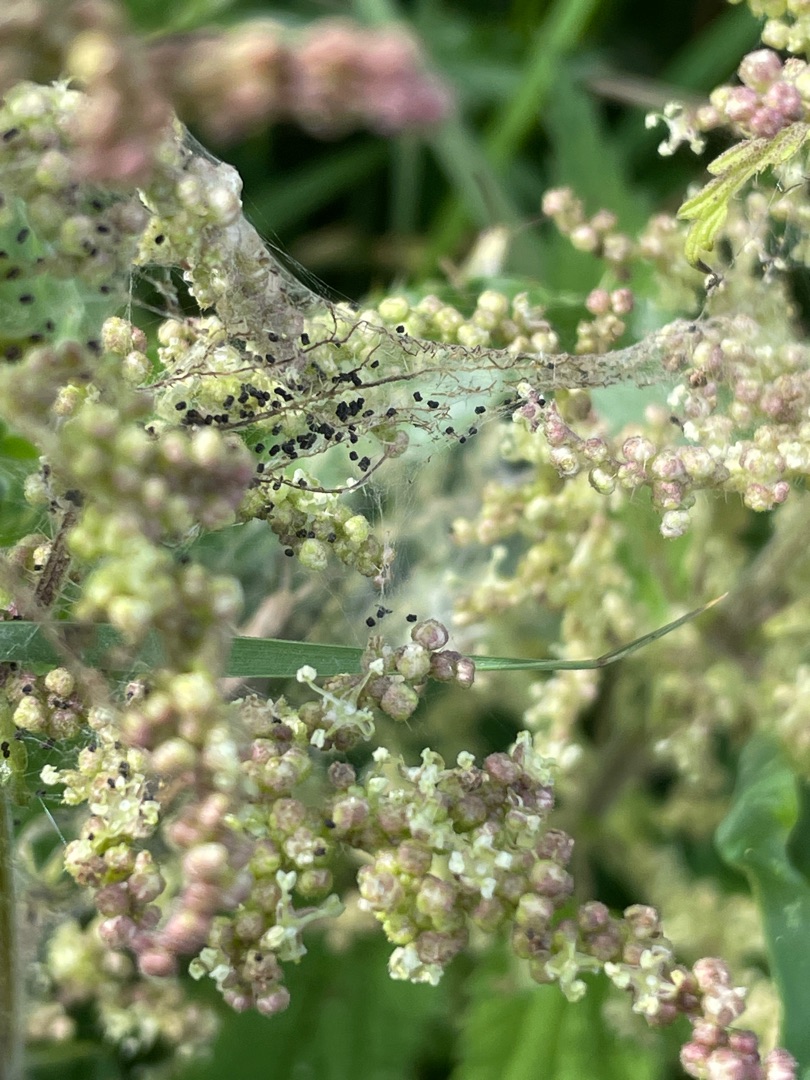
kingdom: Plantae
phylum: Tracheophyta
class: Magnoliopsida
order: Rosales
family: Urticaceae
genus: Urtica
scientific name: Urtica dioica
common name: Stor nælde
